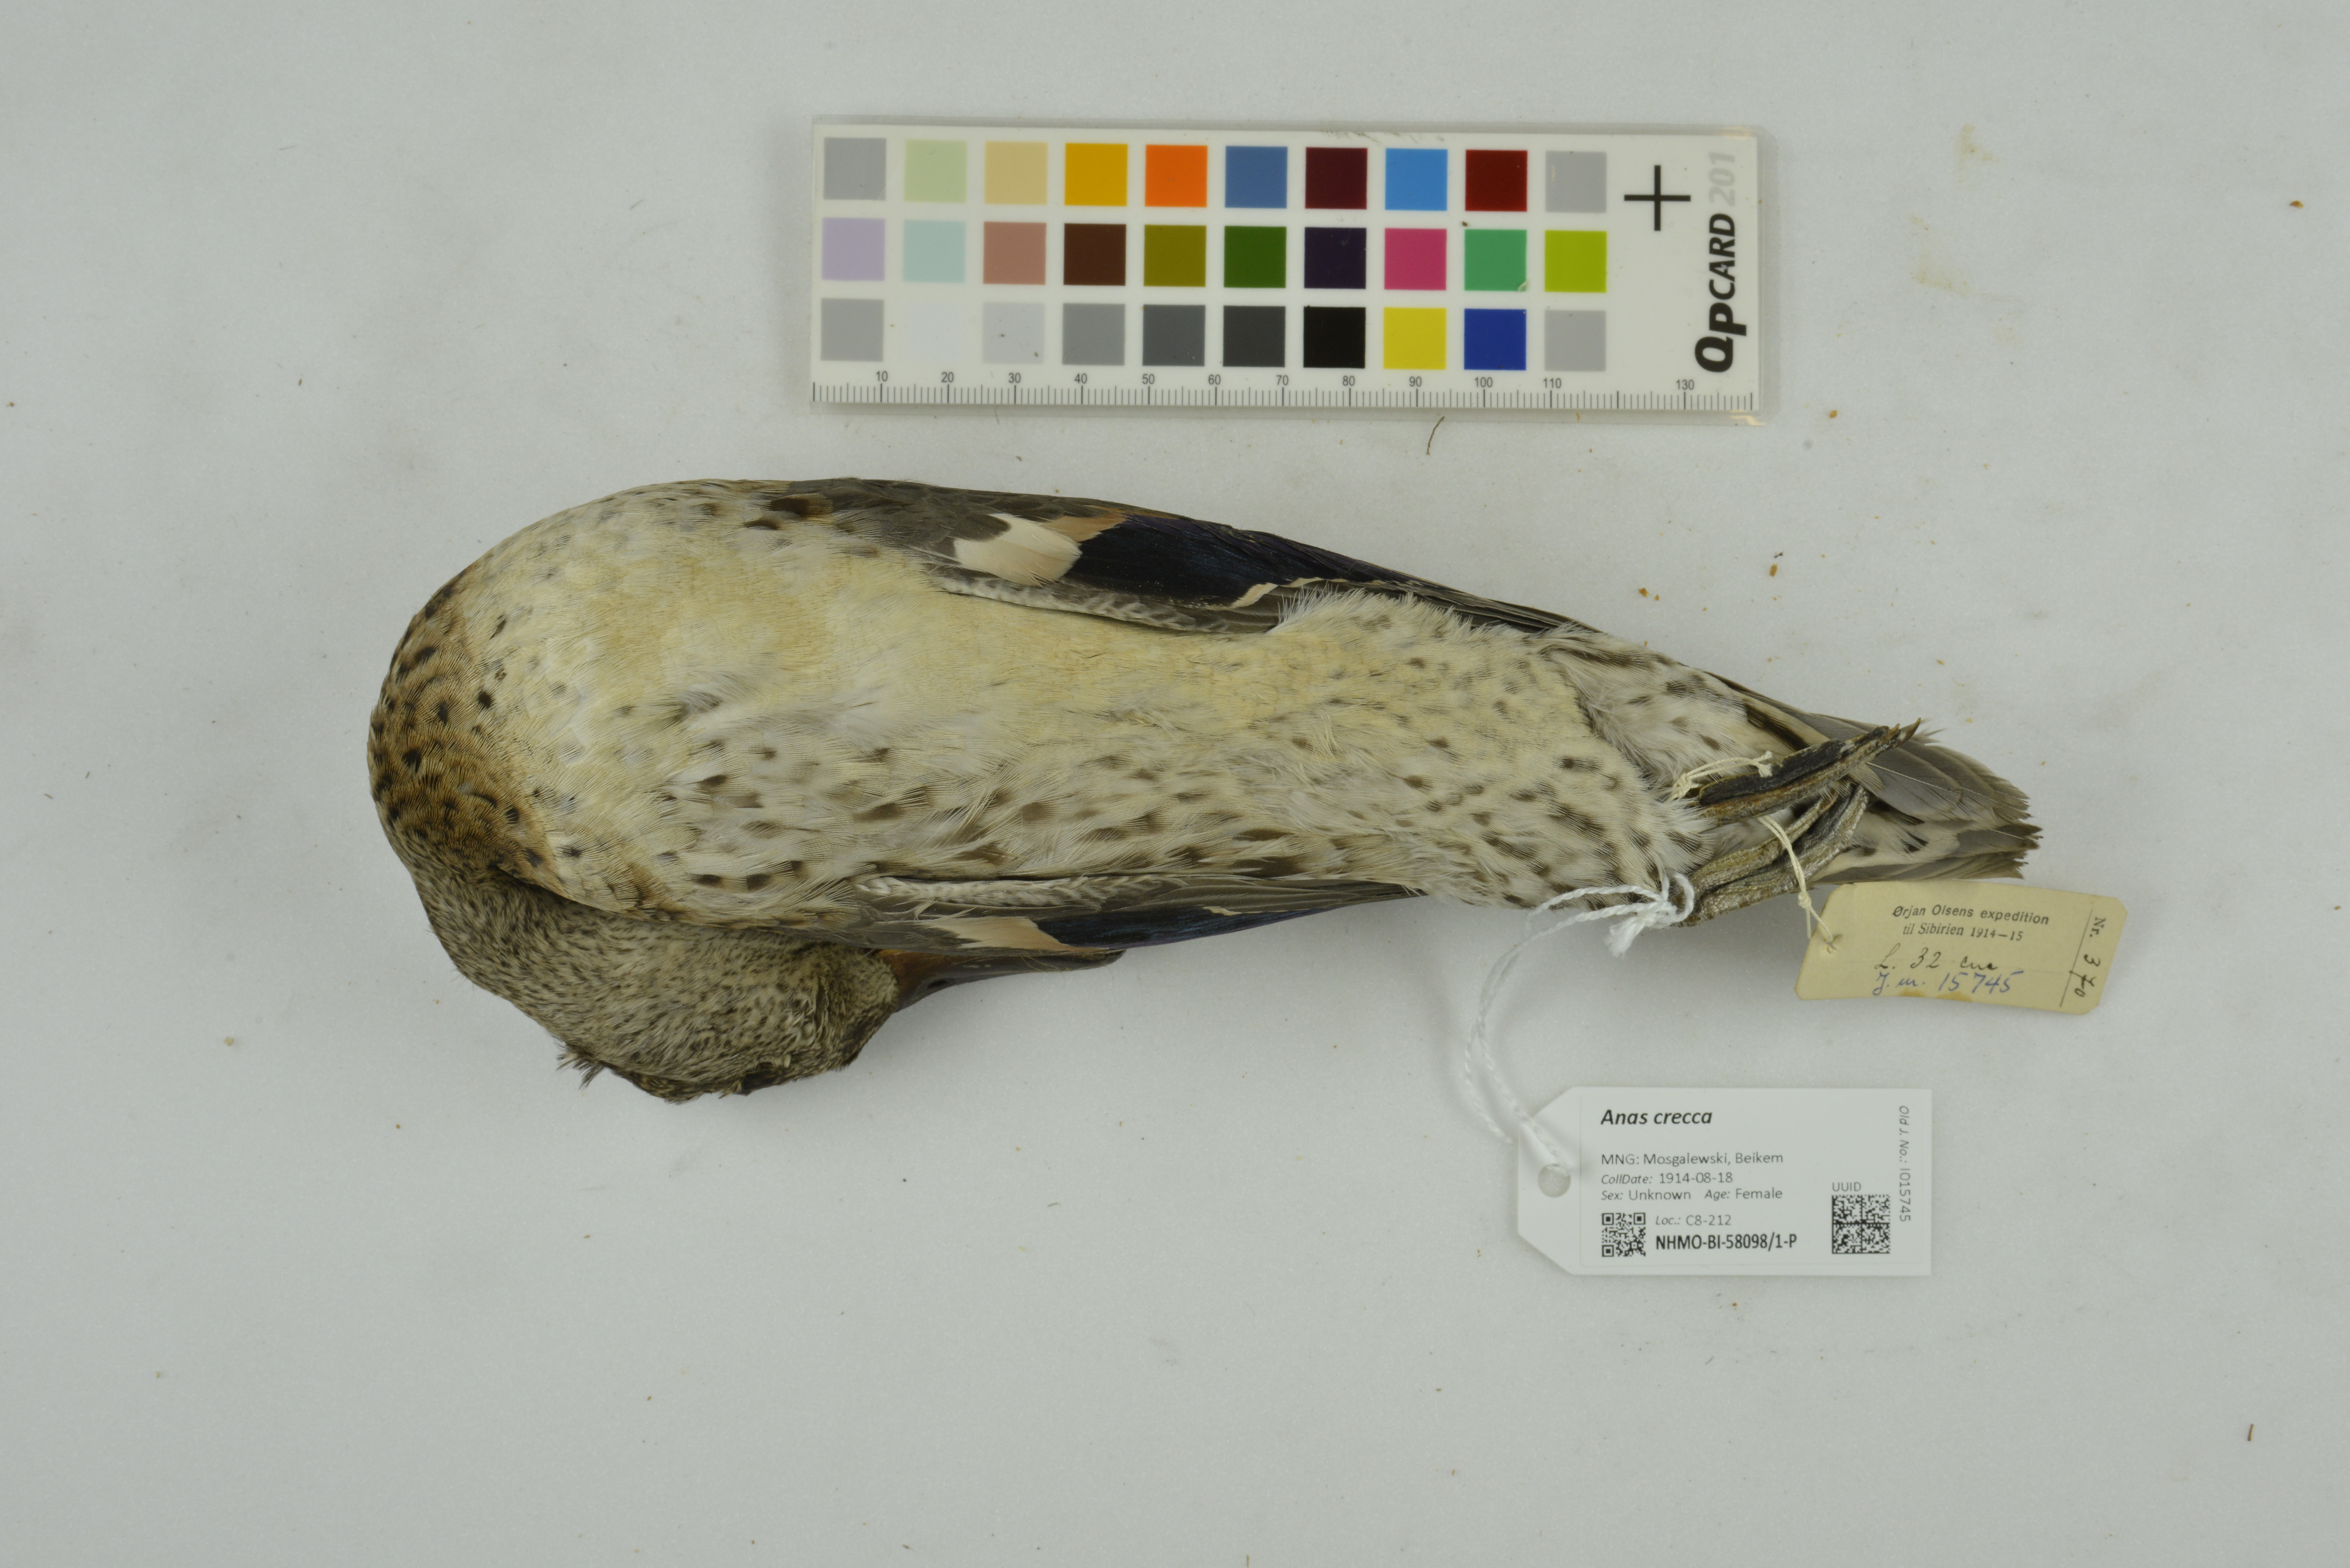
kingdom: Animalia
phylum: Chordata
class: Aves
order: Anseriformes
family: Anatidae
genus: Anas
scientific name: Anas crecca
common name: Eurasian teal
